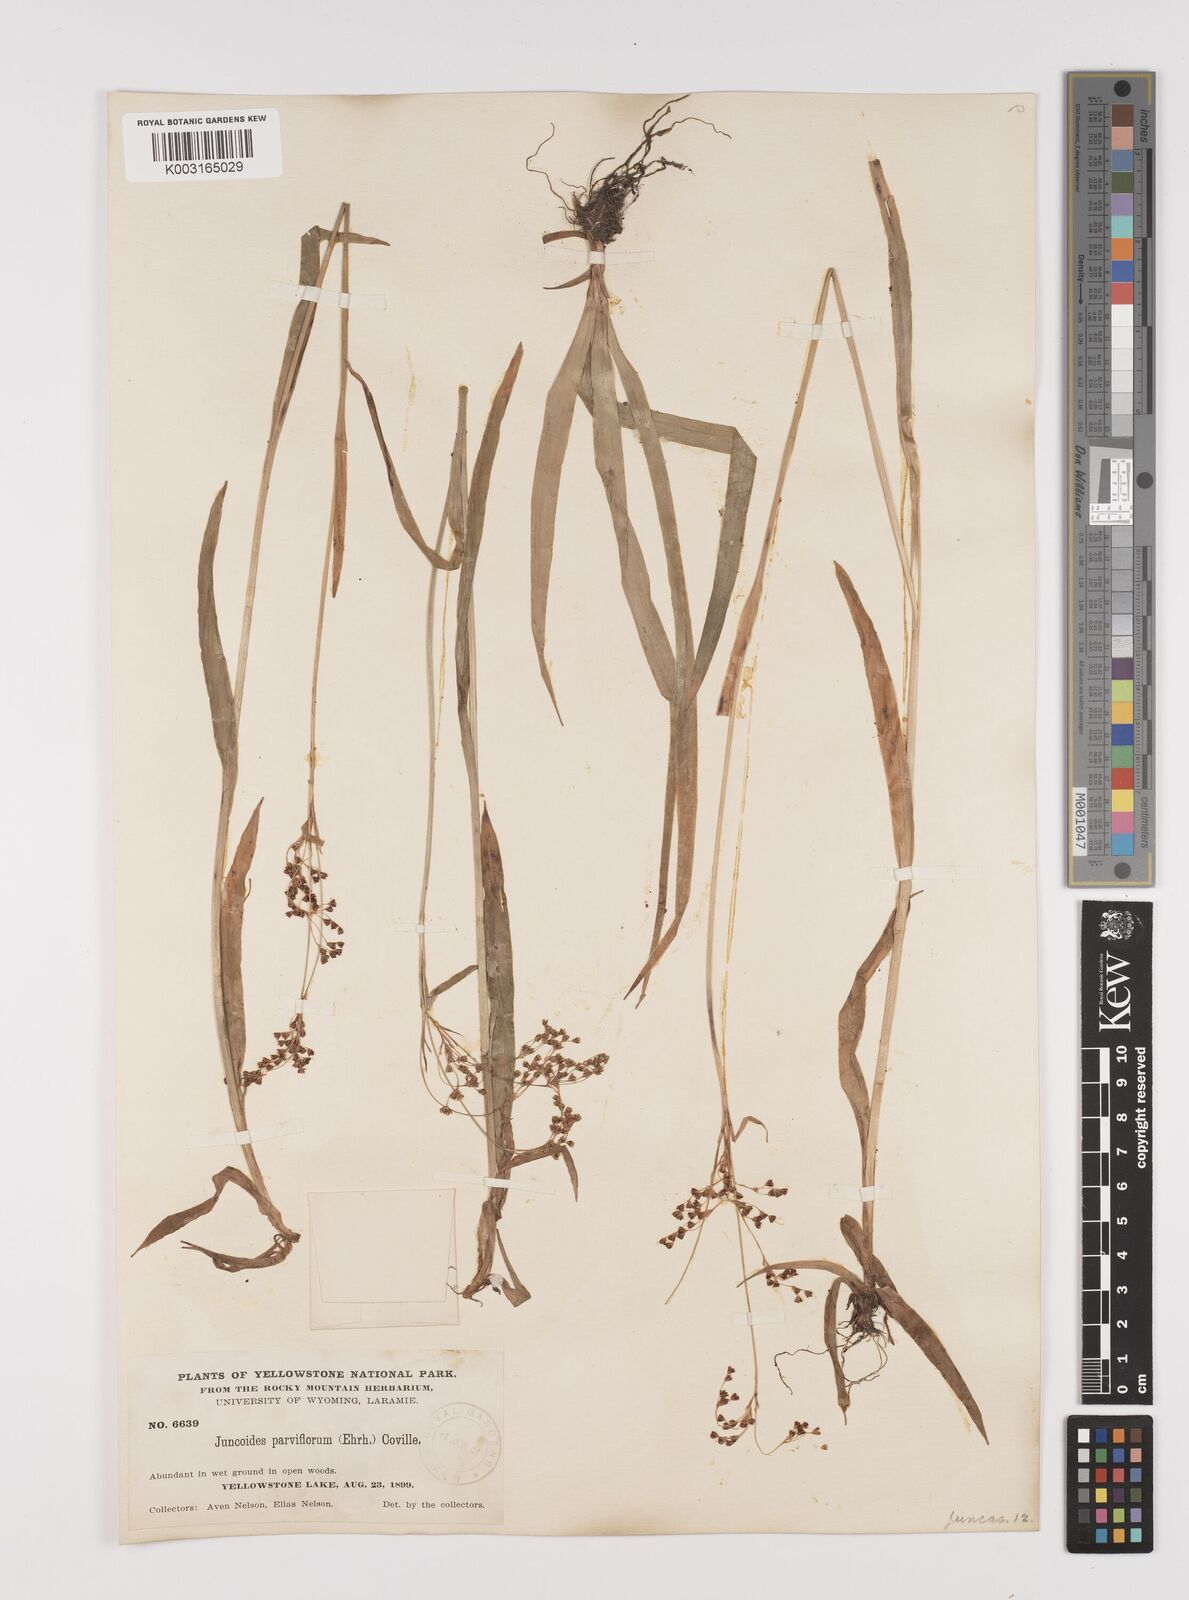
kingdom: Plantae
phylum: Tracheophyta
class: Liliopsida
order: Poales
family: Juncaceae
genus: Luzula
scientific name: Luzula parviflora
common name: Millet woodrush
